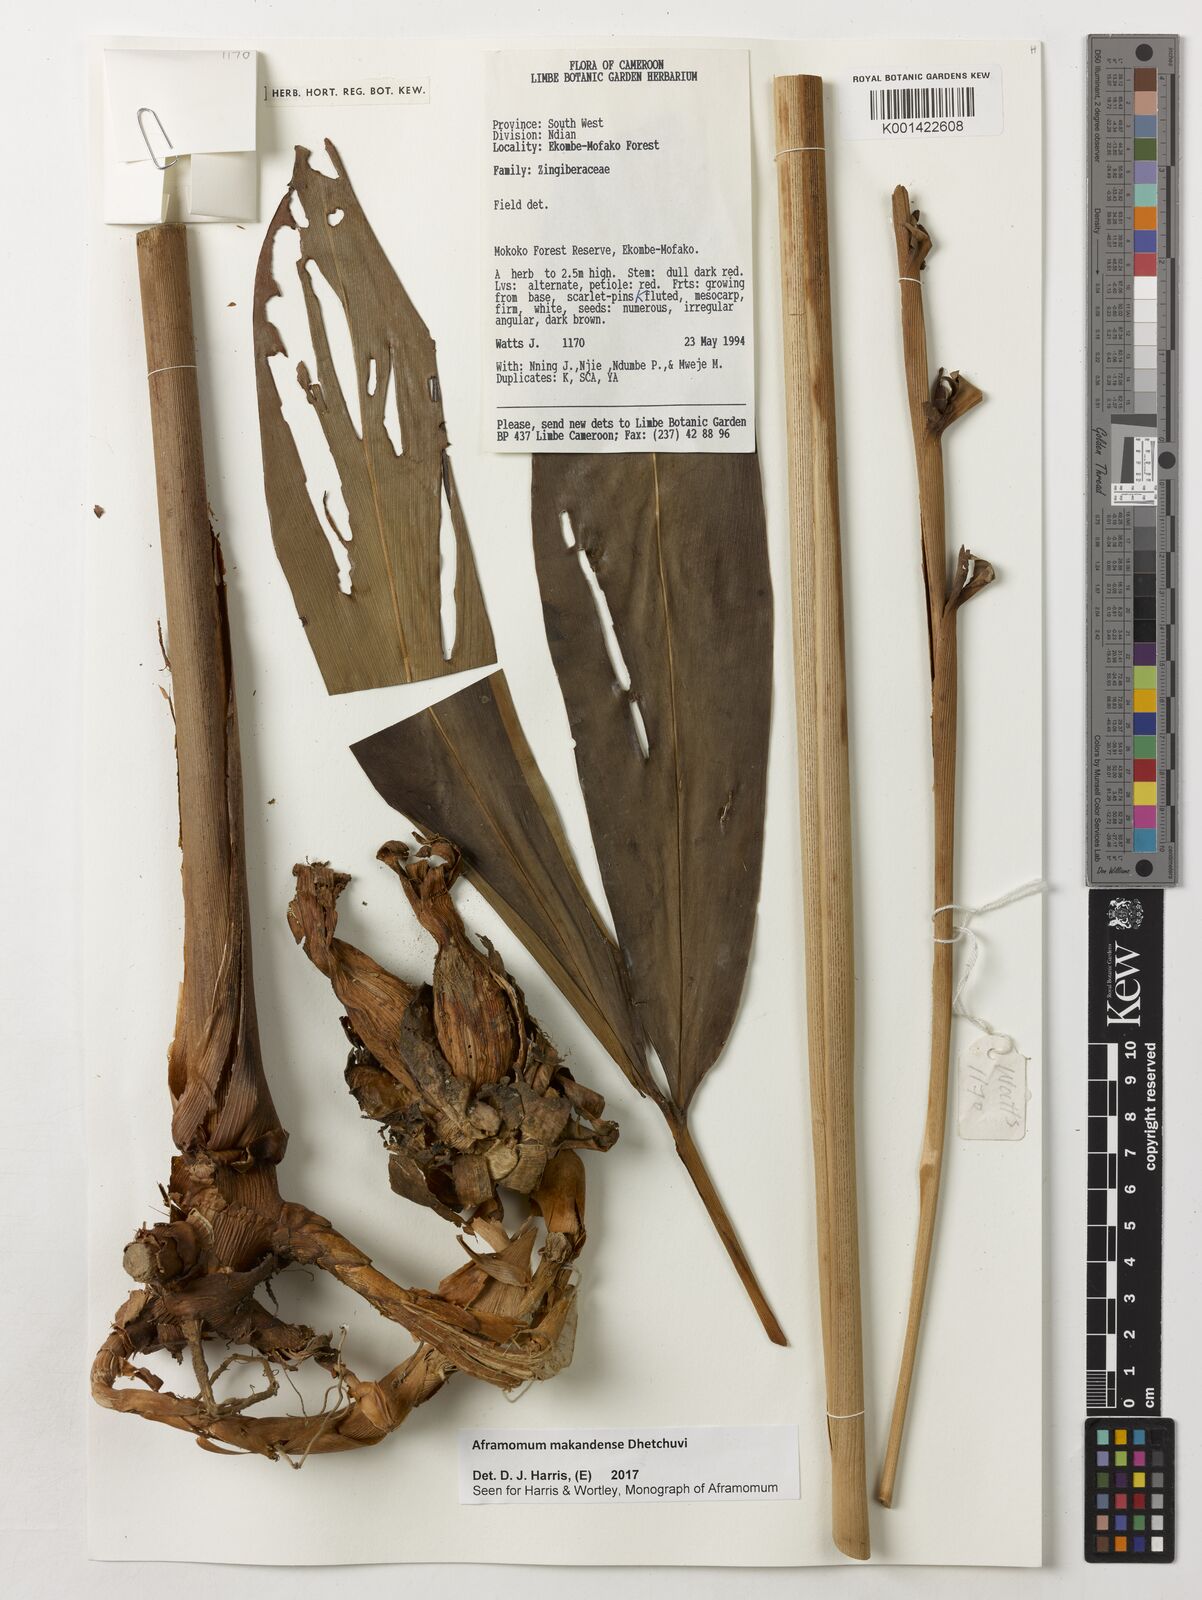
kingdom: Plantae
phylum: Tracheophyta
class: Liliopsida
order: Zingiberales
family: Zingiberaceae
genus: Aframomum
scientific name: Aframomum makandensis
